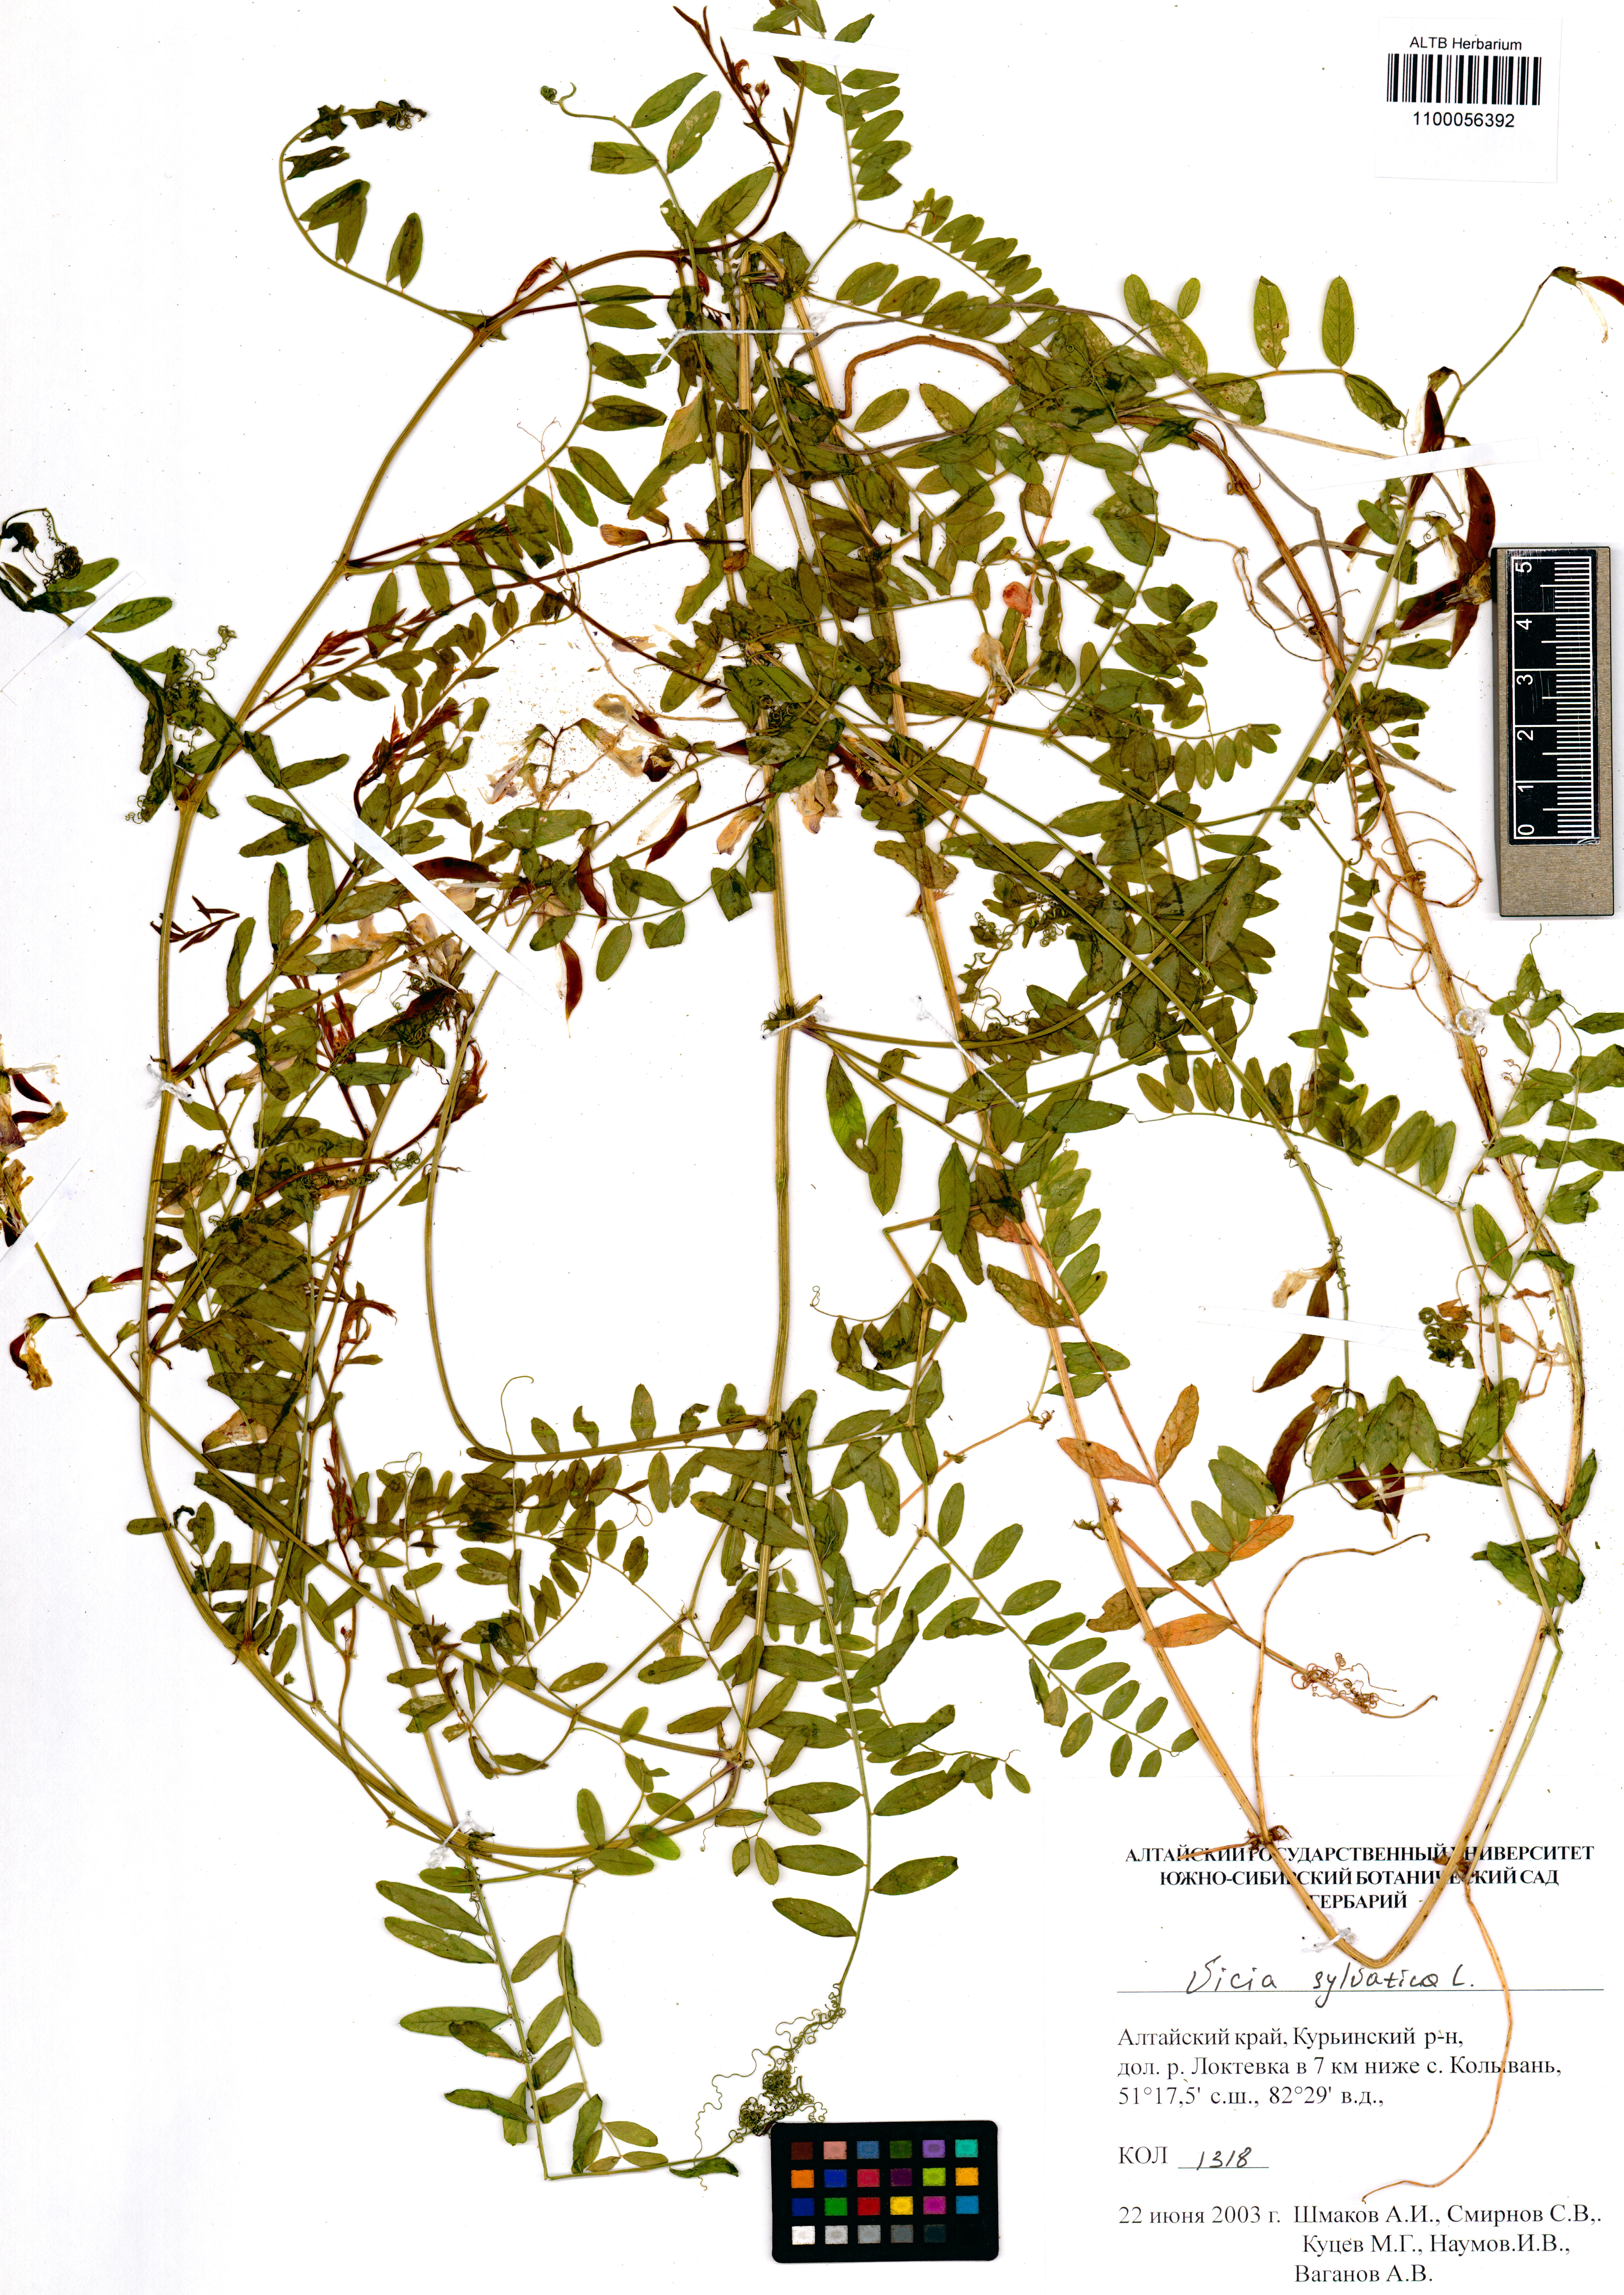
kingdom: Plantae
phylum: Tracheophyta
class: Magnoliopsida
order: Fabales
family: Fabaceae
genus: Vicia
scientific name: Vicia sylvatica
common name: Wood vetch
